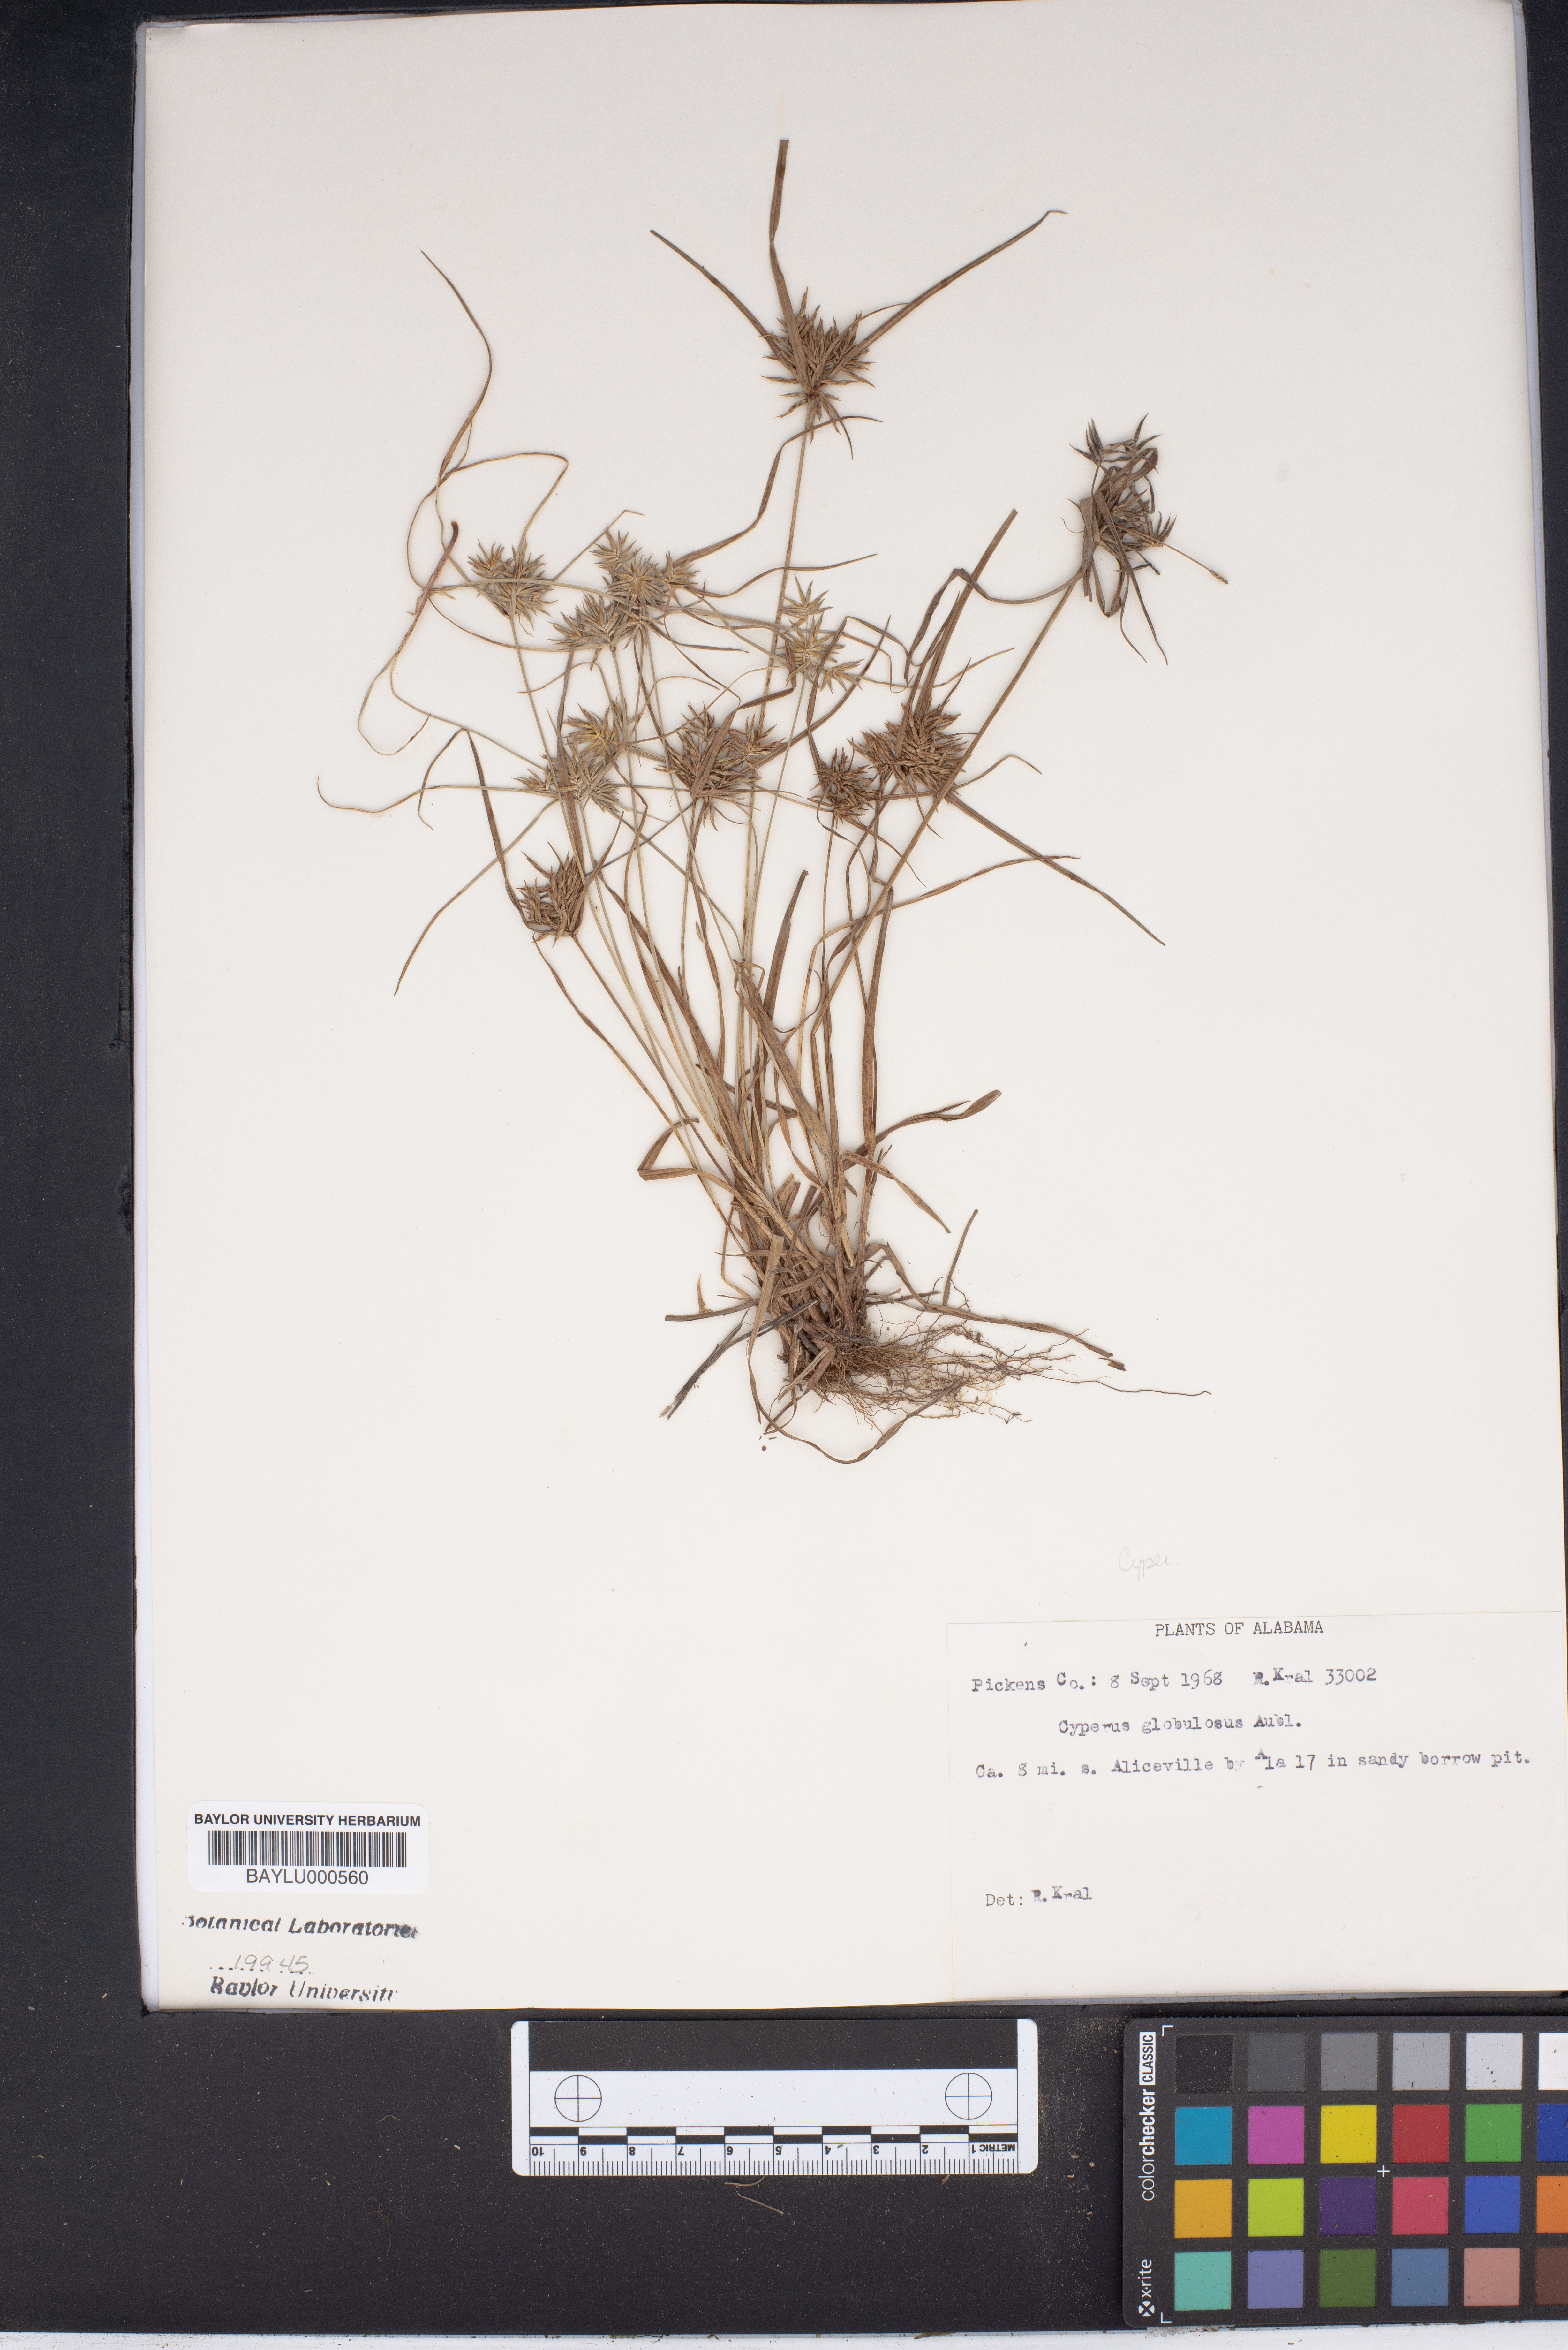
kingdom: Plantae
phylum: Tracheophyta
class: Liliopsida
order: Poales
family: Cyperaceae
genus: Cyperus
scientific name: Cyperus luzulae
